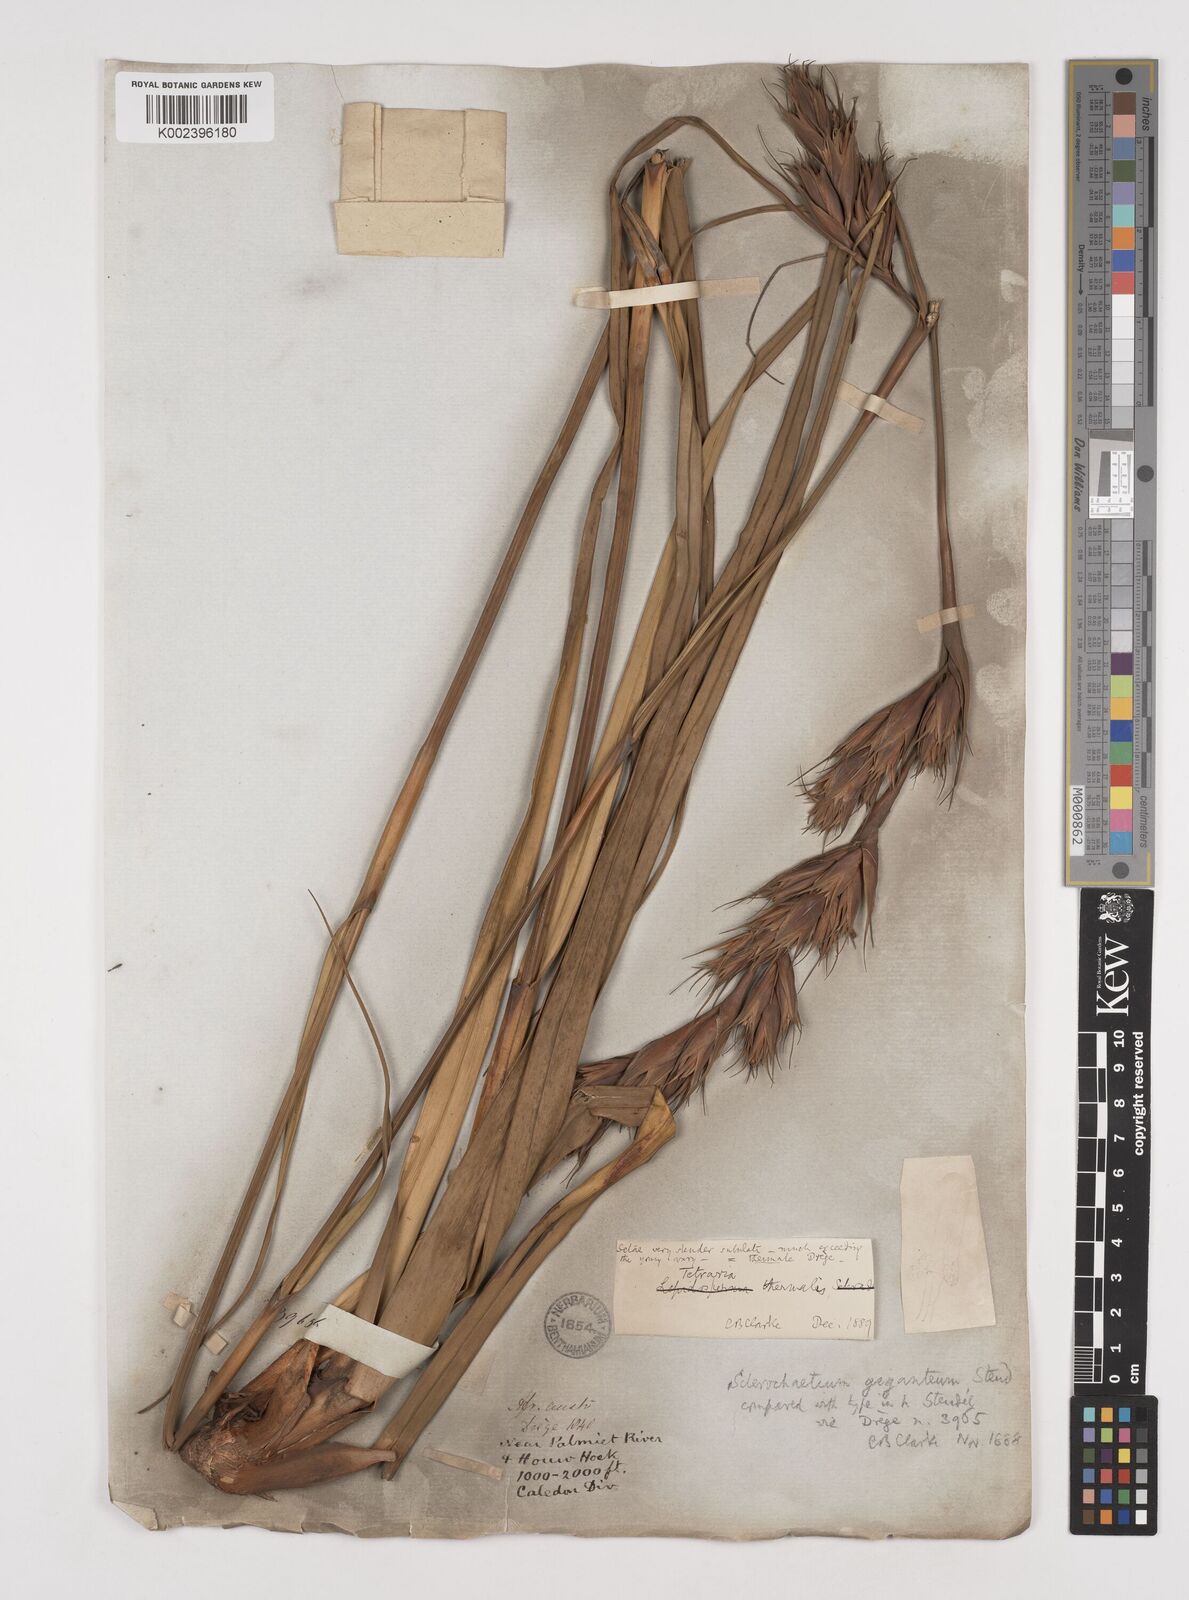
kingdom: Plantae
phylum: Tracheophyta
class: Liliopsida
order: Poales
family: Cyperaceae
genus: Tetraria
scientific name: Tetraria thermalis
